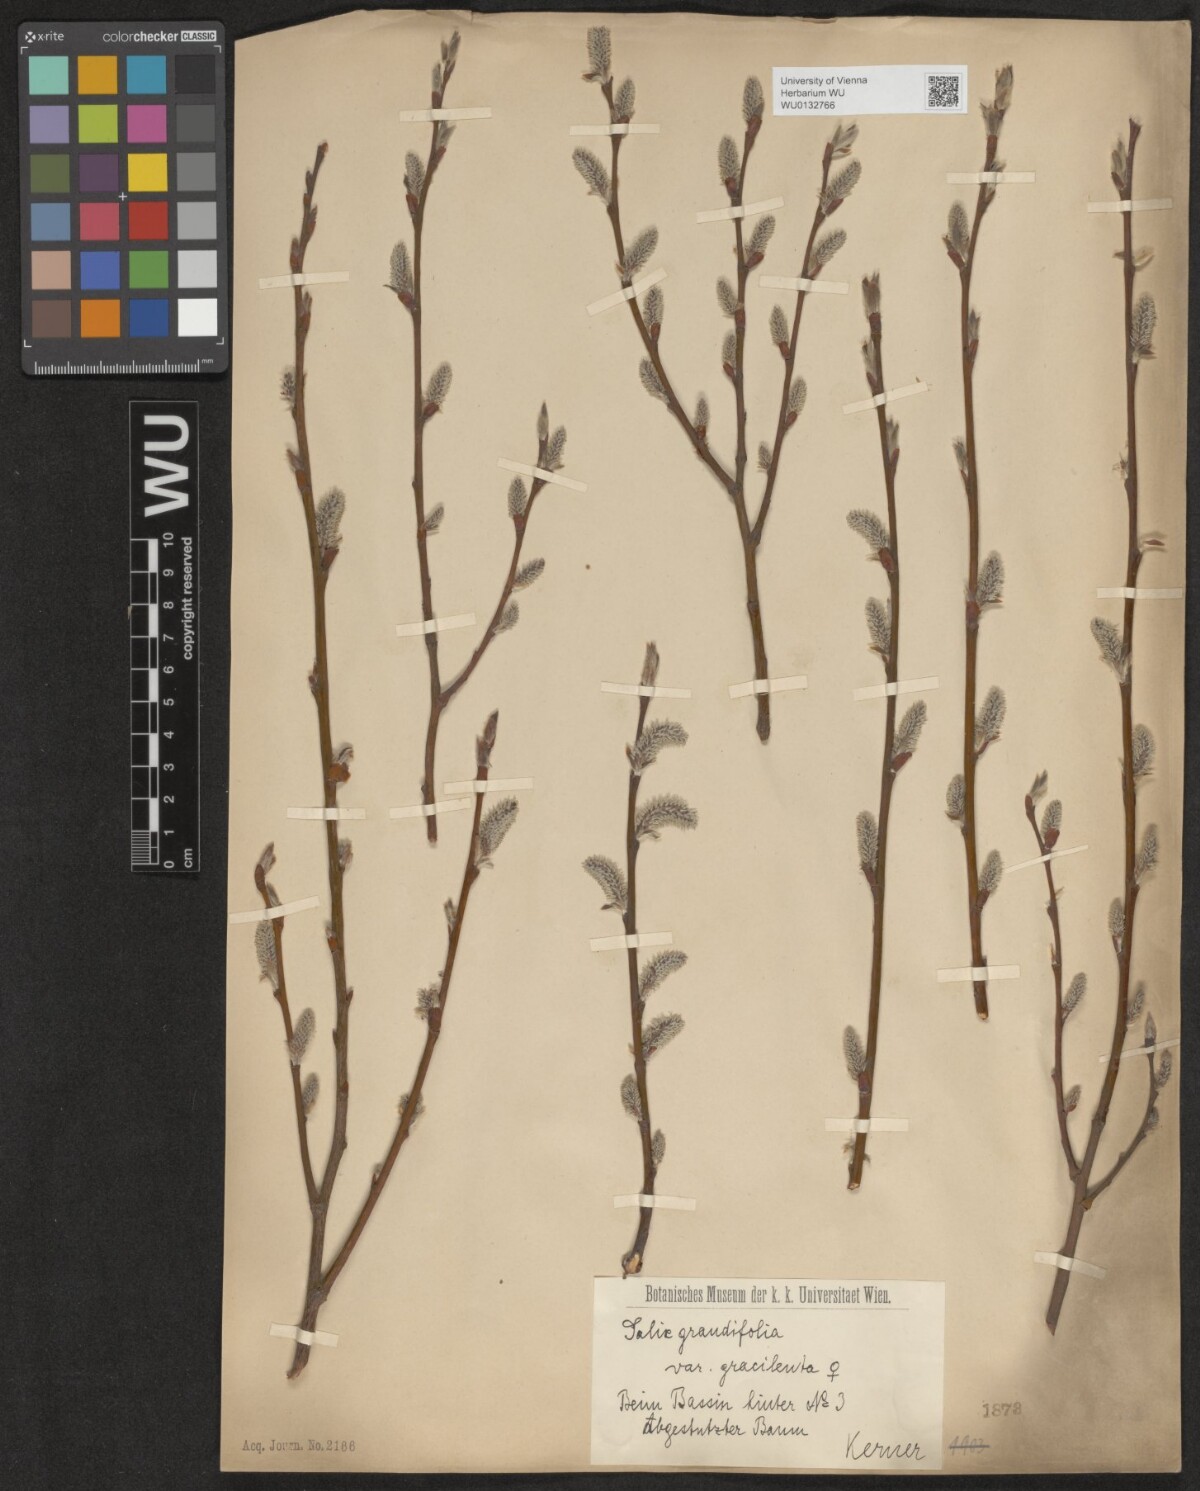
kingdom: Plantae
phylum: Tracheophyta
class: Magnoliopsida
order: Malpighiales
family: Salicaceae
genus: Salix
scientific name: Salix appendiculata
